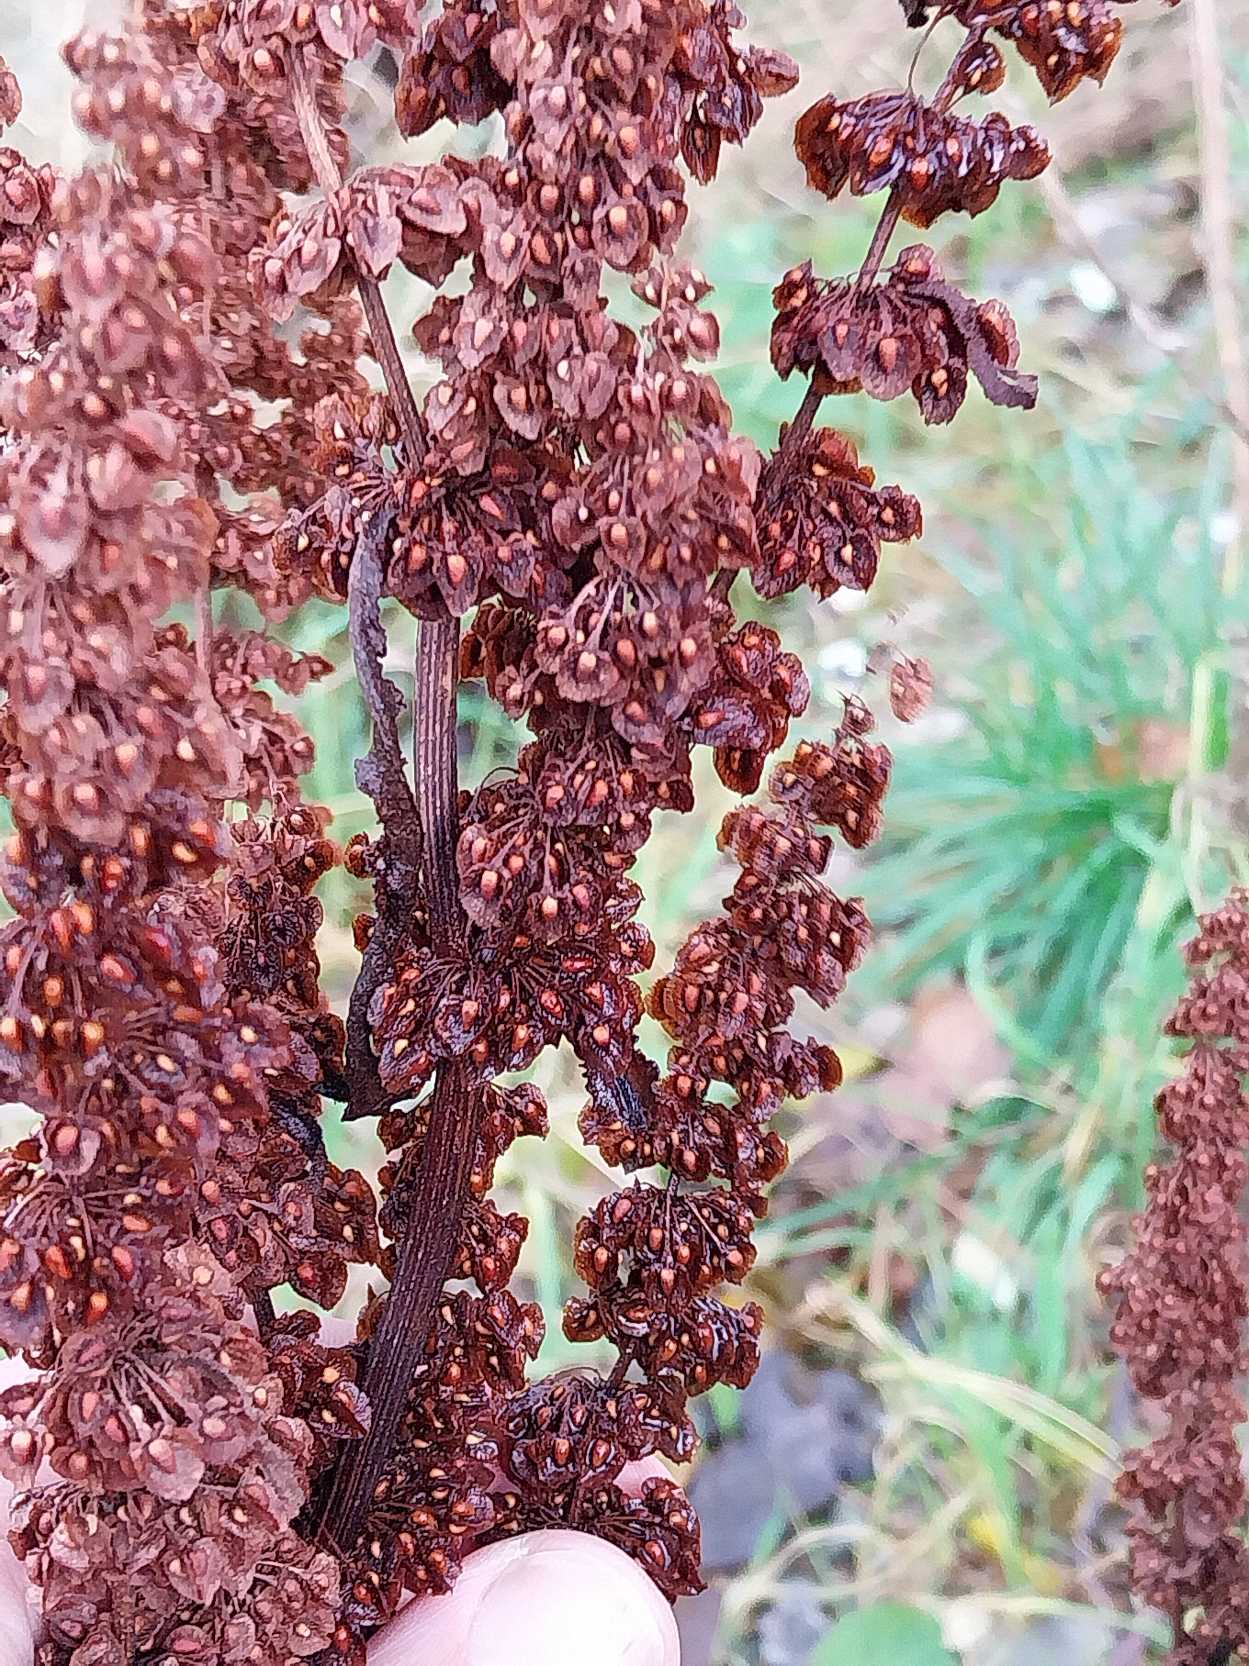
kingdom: Plantae
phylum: Tracheophyta
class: Magnoliopsida
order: Caryophyllales
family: Polygonaceae
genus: Rumex
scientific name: Rumex crispus
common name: Kruset skræppe
